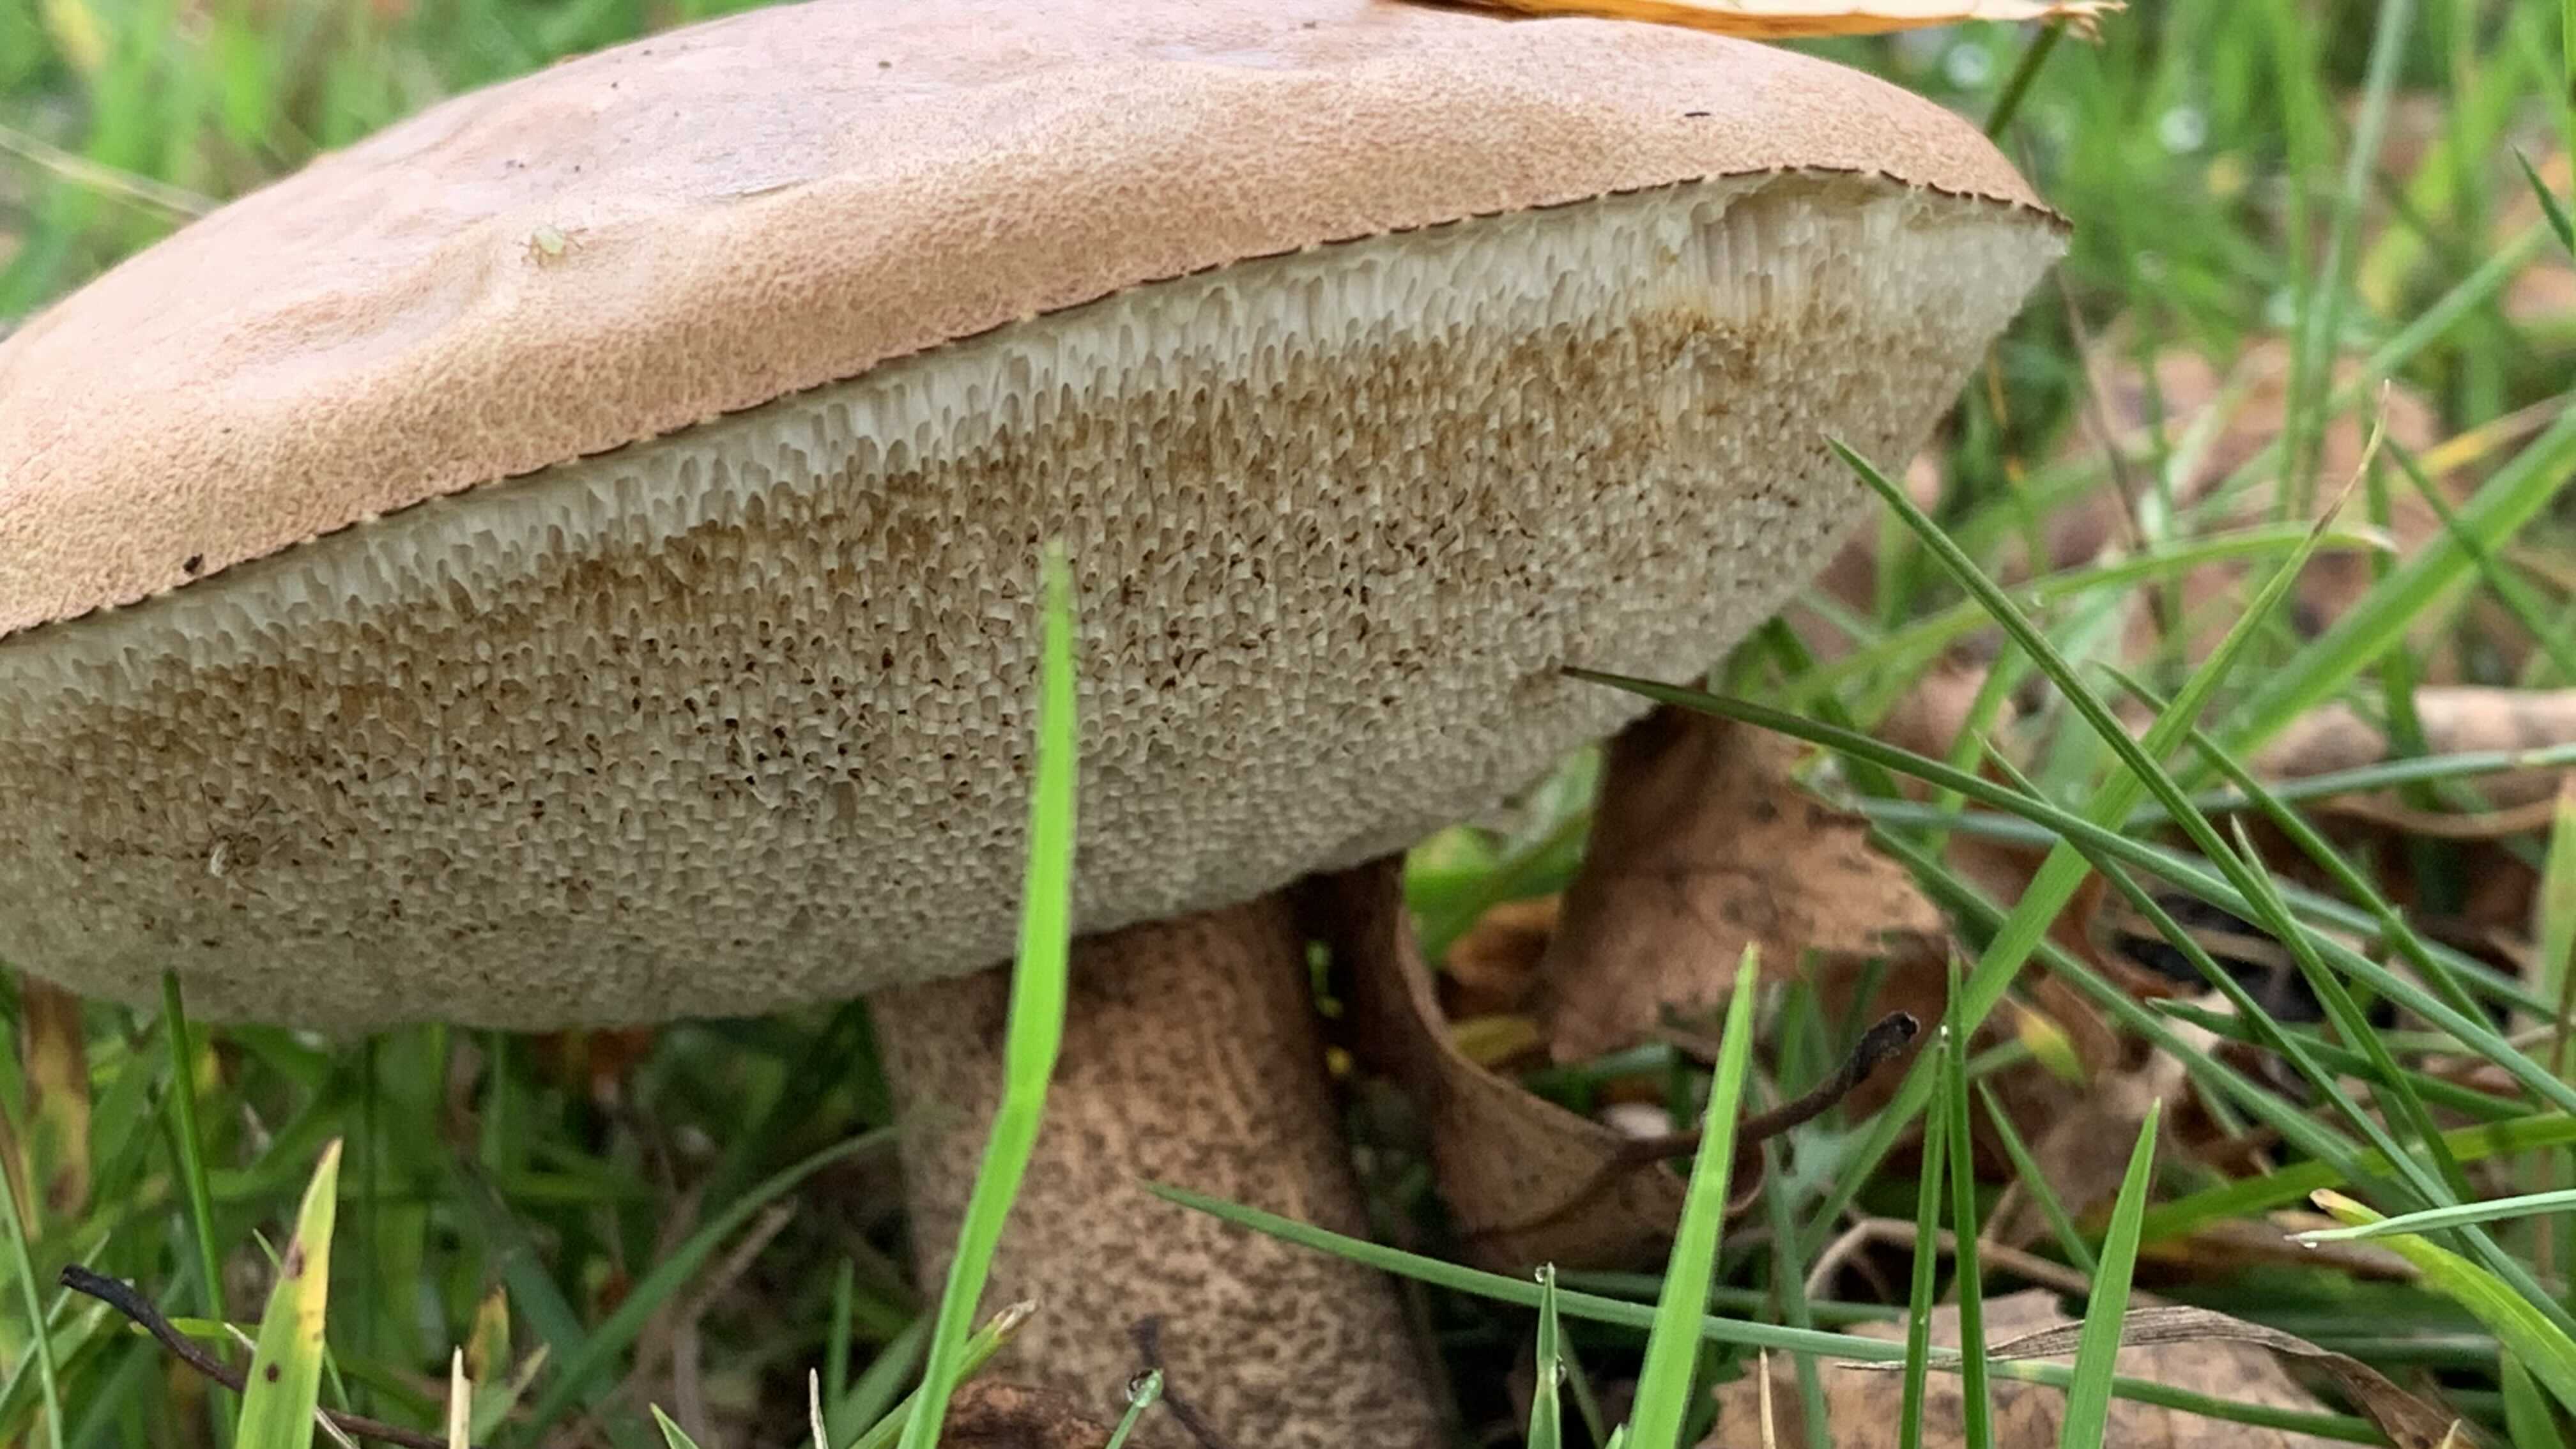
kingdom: Fungi
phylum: Basidiomycota
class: Agaricomycetes
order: Boletales
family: Boletaceae
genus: Leccinum
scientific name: Leccinum
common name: skælrørhat
